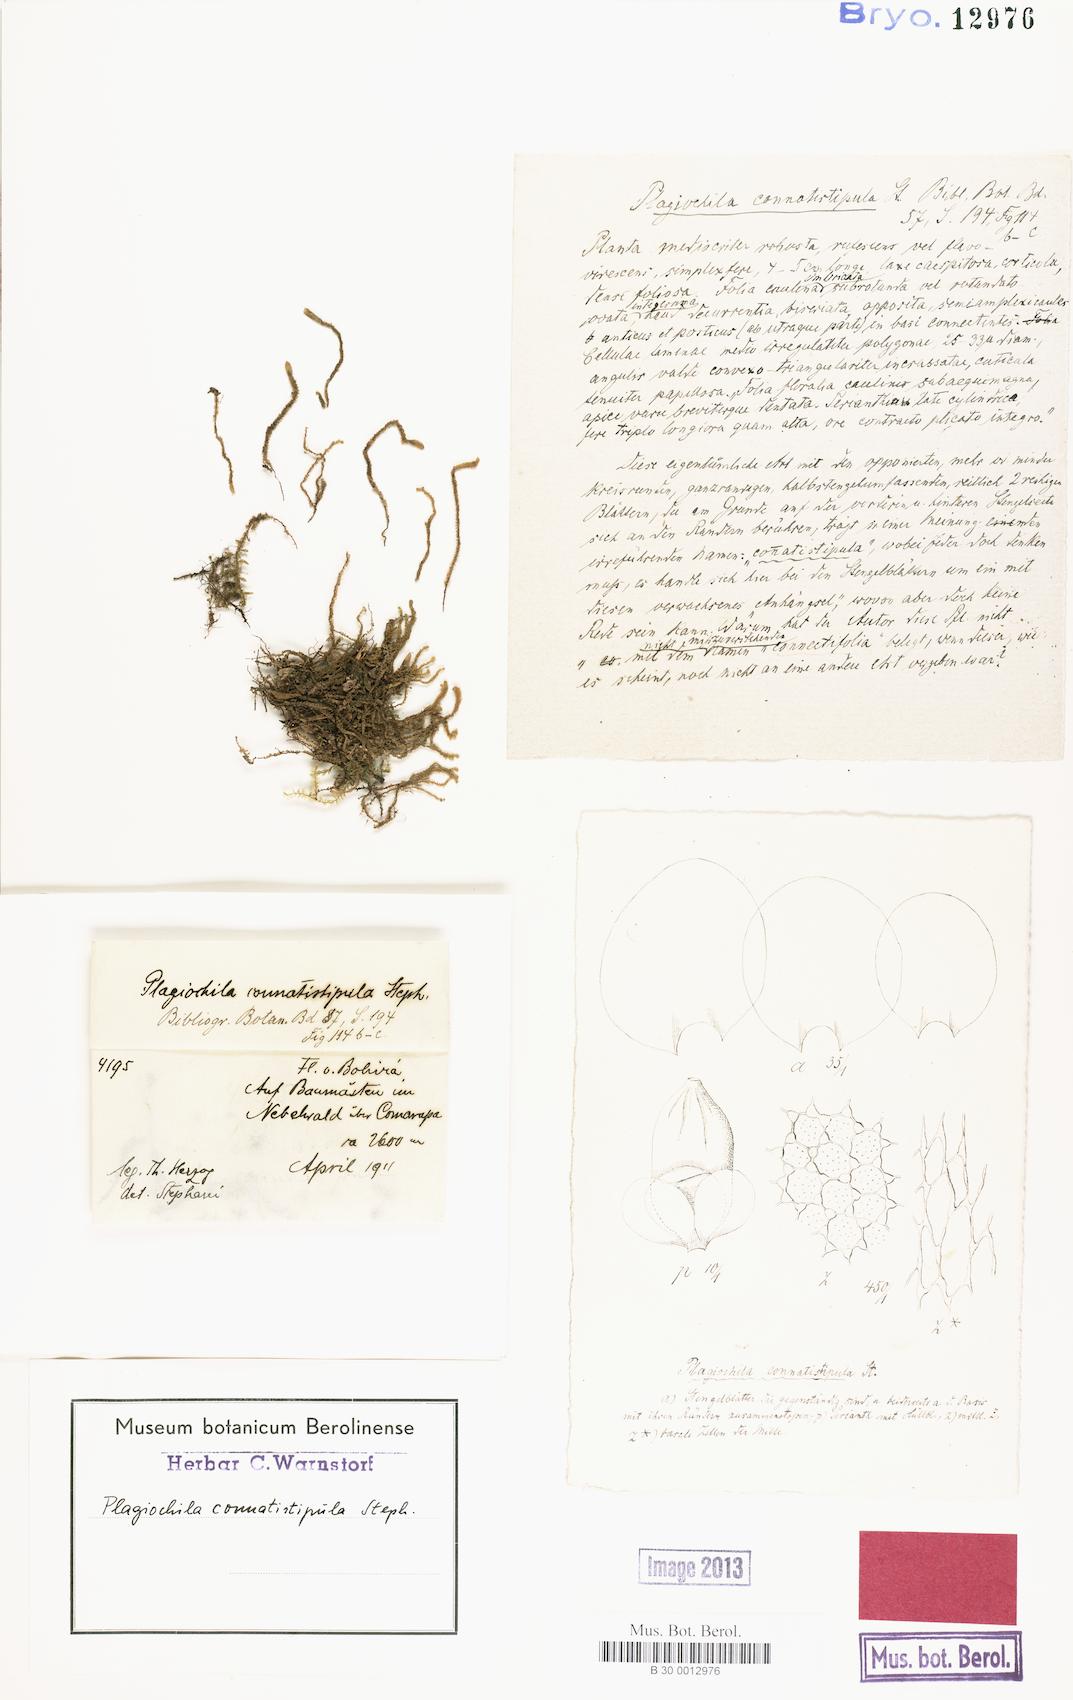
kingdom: Plantae
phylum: Marchantiophyta
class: Jungermanniopsida
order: Jungermanniales
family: Adelanthaceae
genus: Syzygiella
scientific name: Syzygiella setulosa
